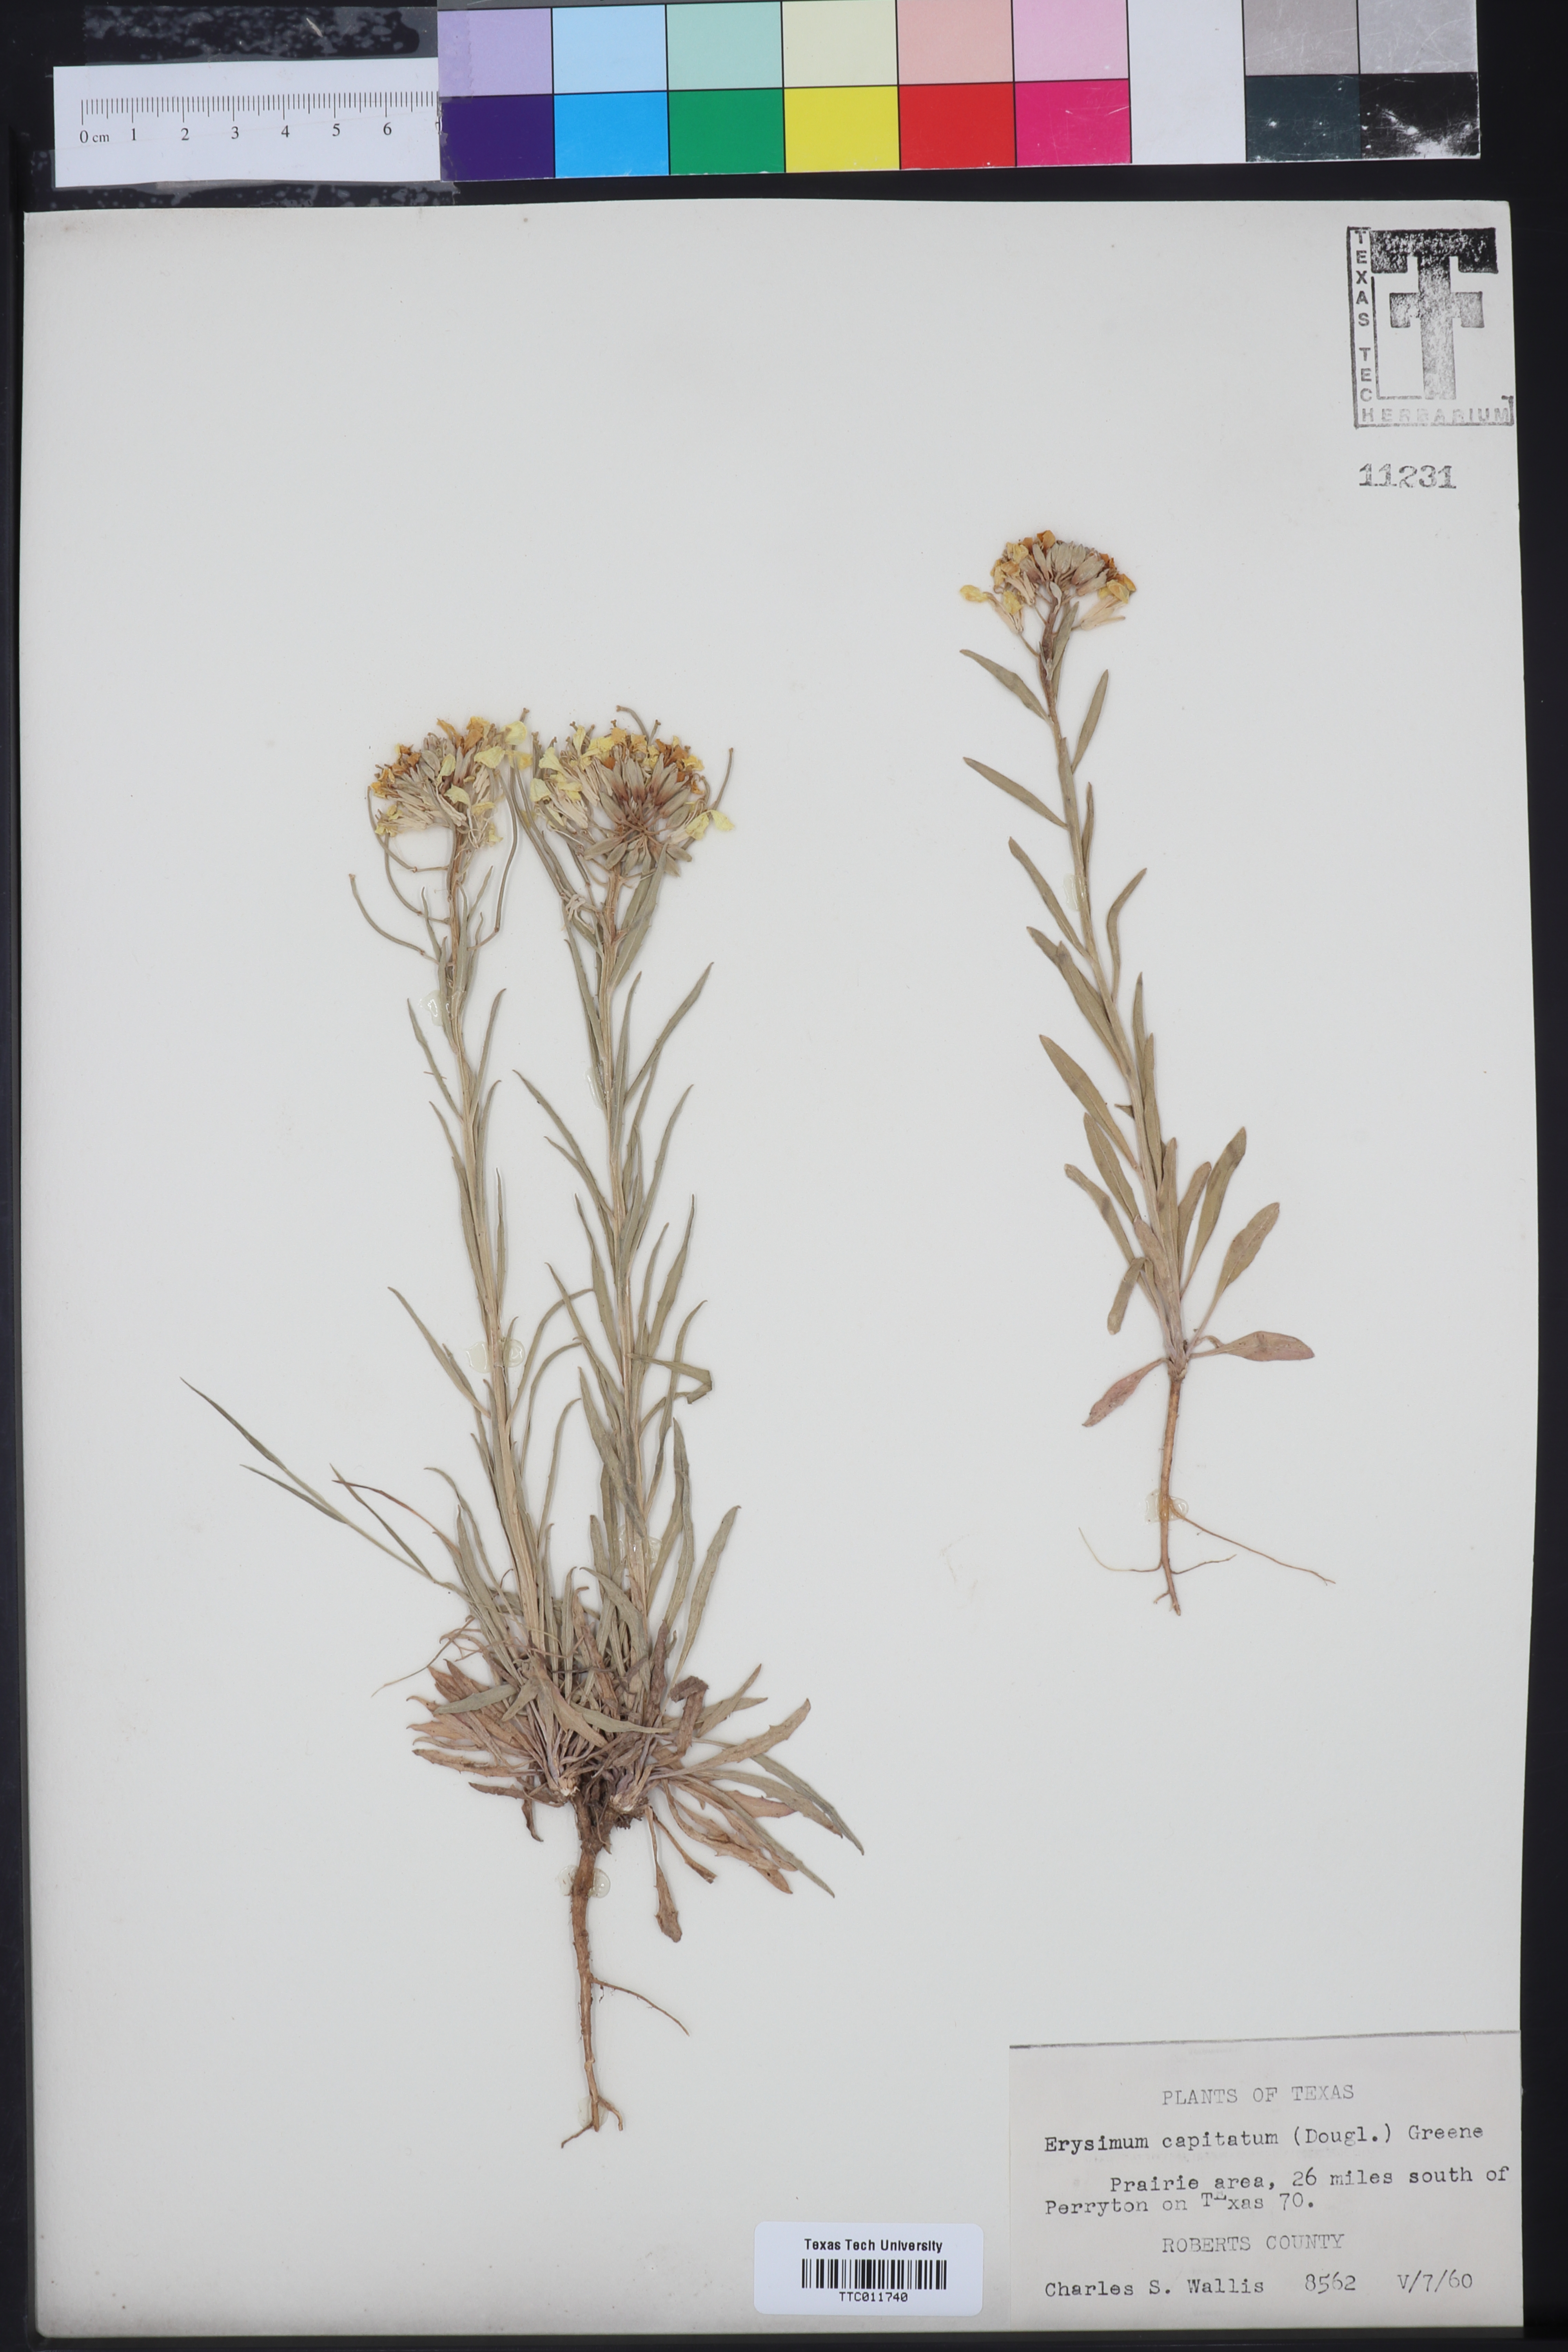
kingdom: Plantae
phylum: Tracheophyta
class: Magnoliopsida
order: Brassicales
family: Brassicaceae
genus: Erysimum
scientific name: Erysimum capitatum
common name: Western wallflower
